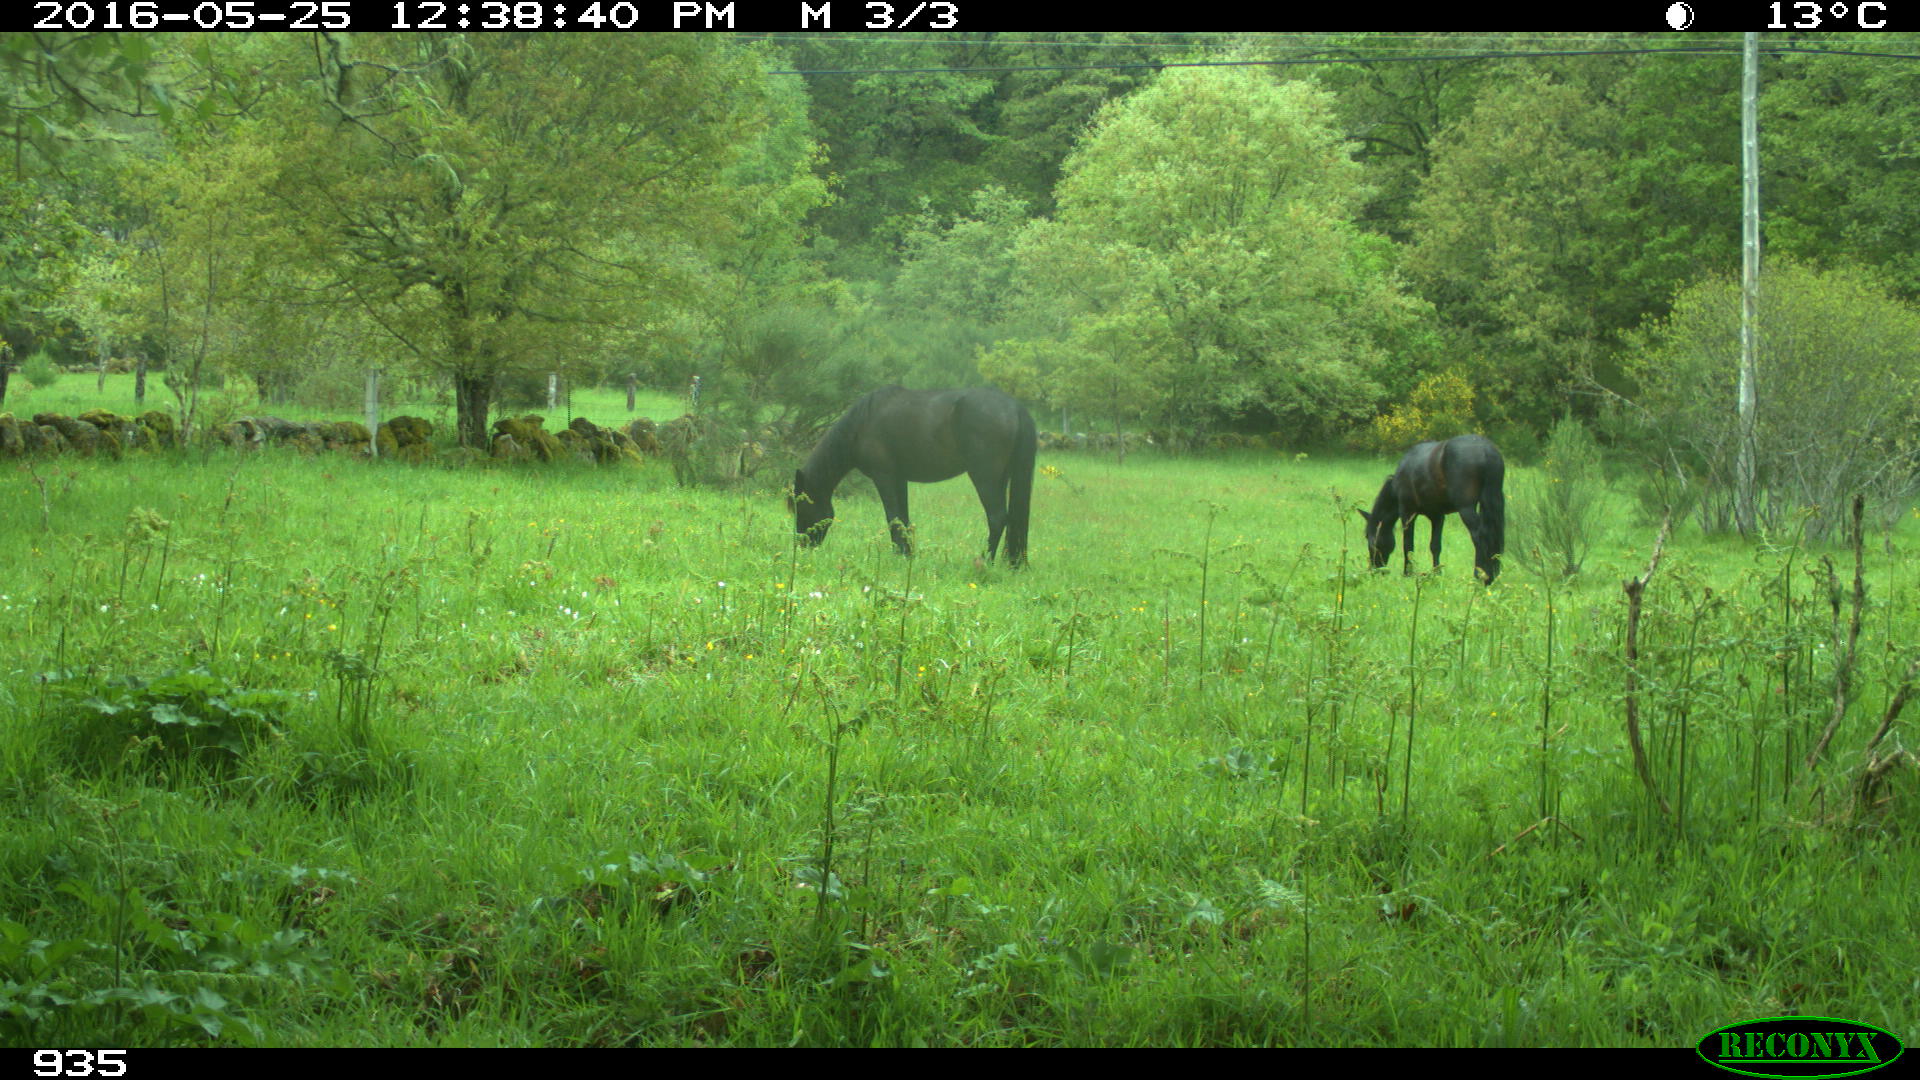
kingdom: Animalia
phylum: Chordata
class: Mammalia
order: Perissodactyla
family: Equidae
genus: Equus
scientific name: Equus caballus
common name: Horse
